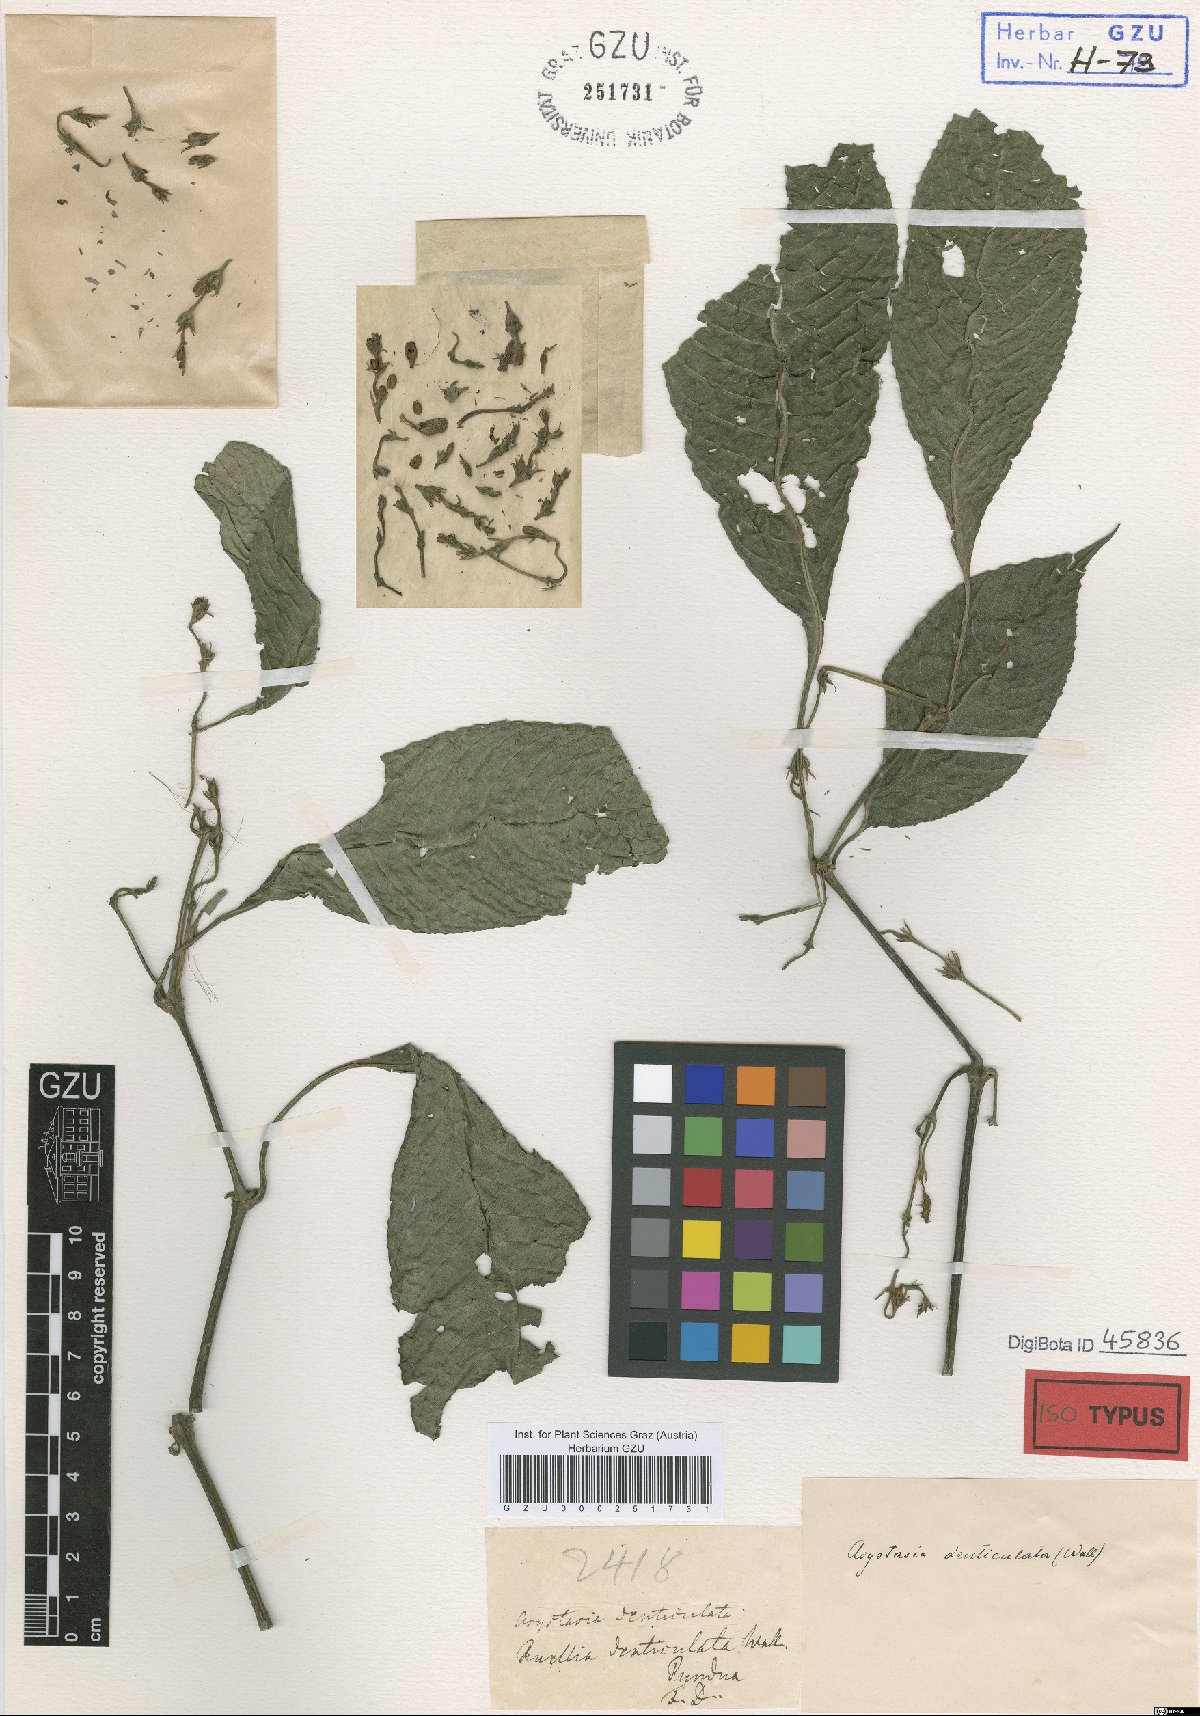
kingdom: Plantae
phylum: Tracheophyta
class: Magnoliopsida
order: Lamiales
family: Acanthaceae
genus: Strobilanthes
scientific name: Strobilanthes denticulata
